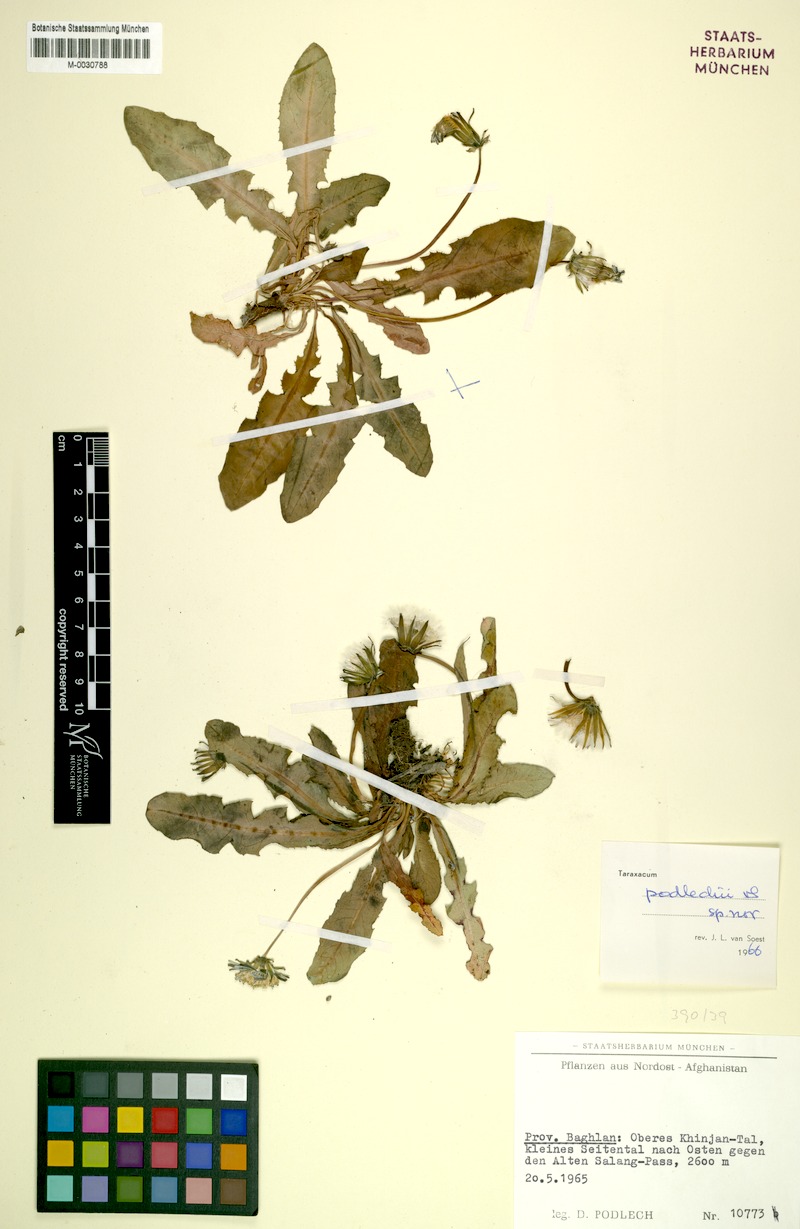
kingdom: Plantae
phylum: Tracheophyta
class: Magnoliopsida
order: Asterales
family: Asteraceae
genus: Taraxacum
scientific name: Taraxacum podlechii
